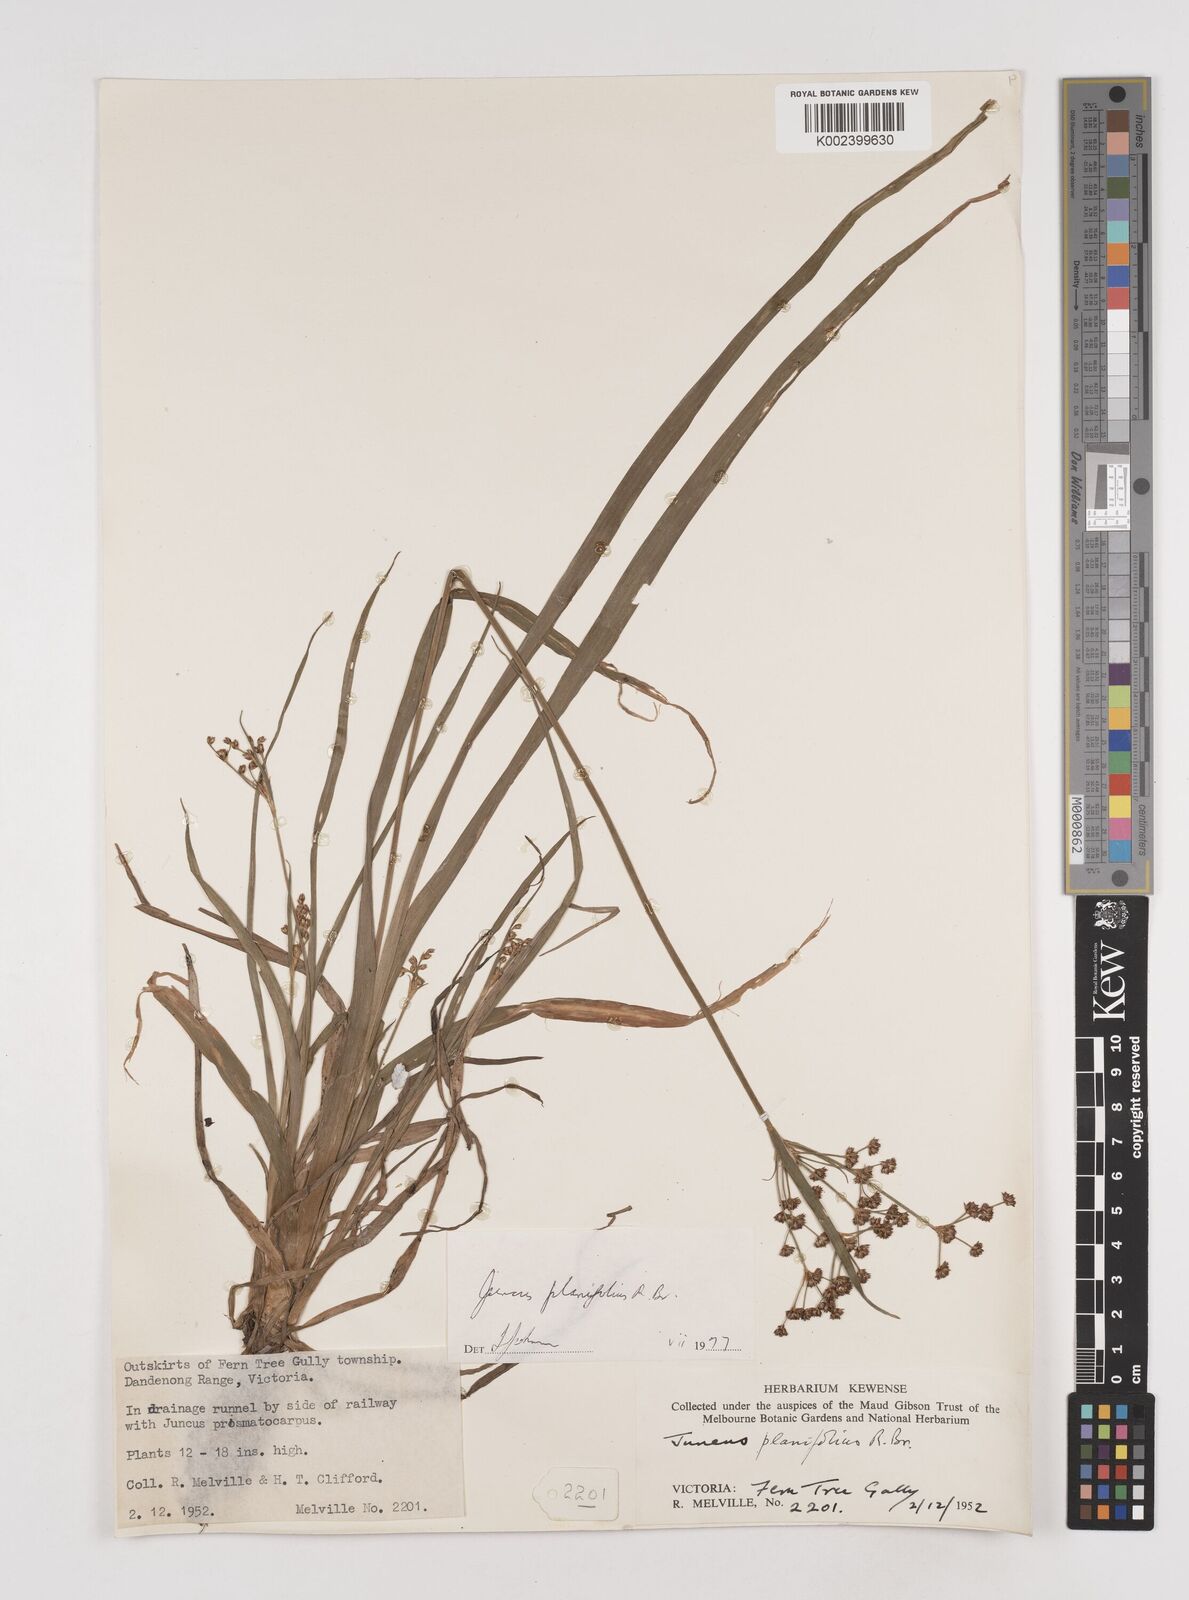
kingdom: Plantae
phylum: Tracheophyta
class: Liliopsida
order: Poales
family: Juncaceae
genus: Juncus
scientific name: Juncus planifolius
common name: Broadleaf rush
